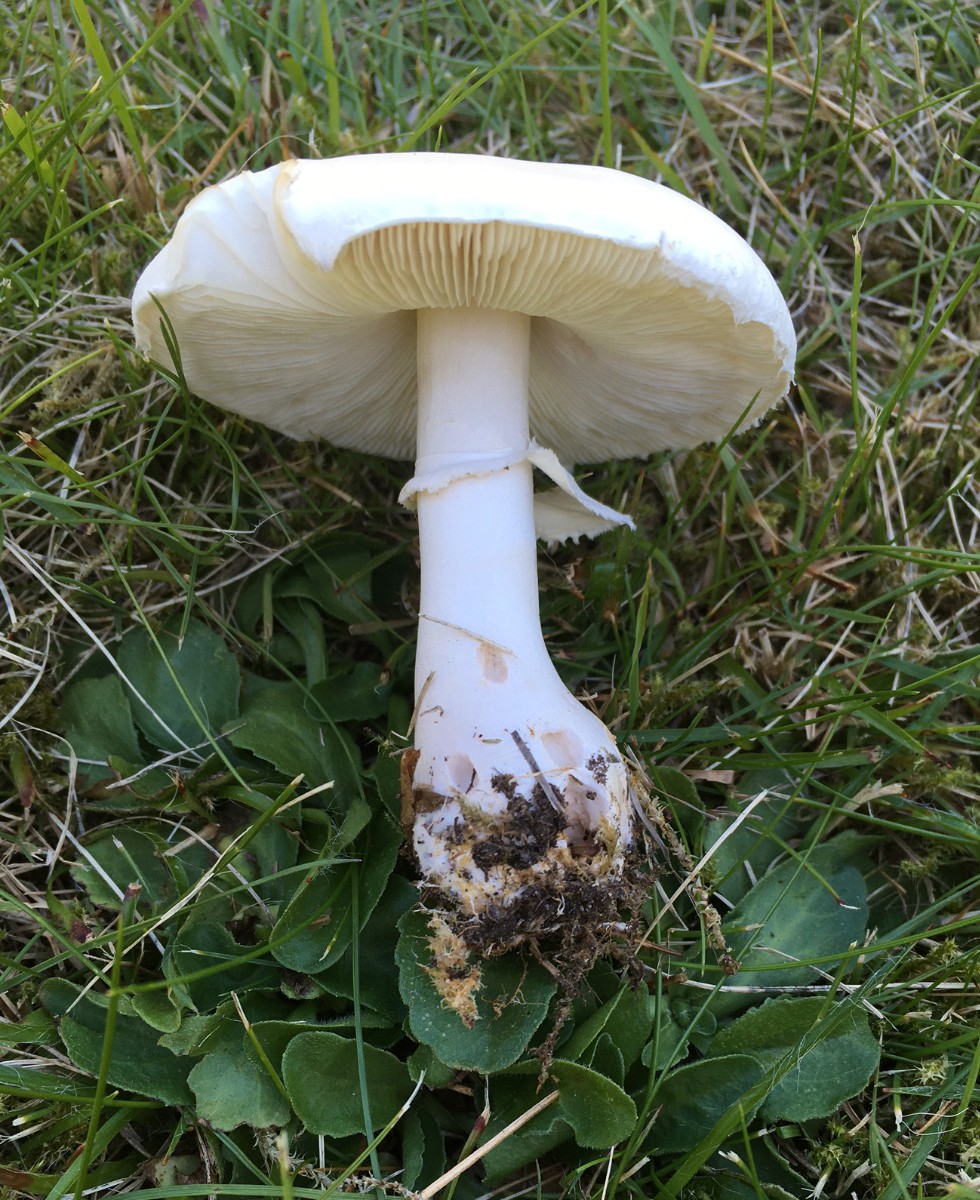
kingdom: Fungi
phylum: Basidiomycota
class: Agaricomycetes
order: Agaricales
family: Agaricaceae
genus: Leucoagaricus
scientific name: Leucoagaricus leucothites
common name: rosabladet silkehat
